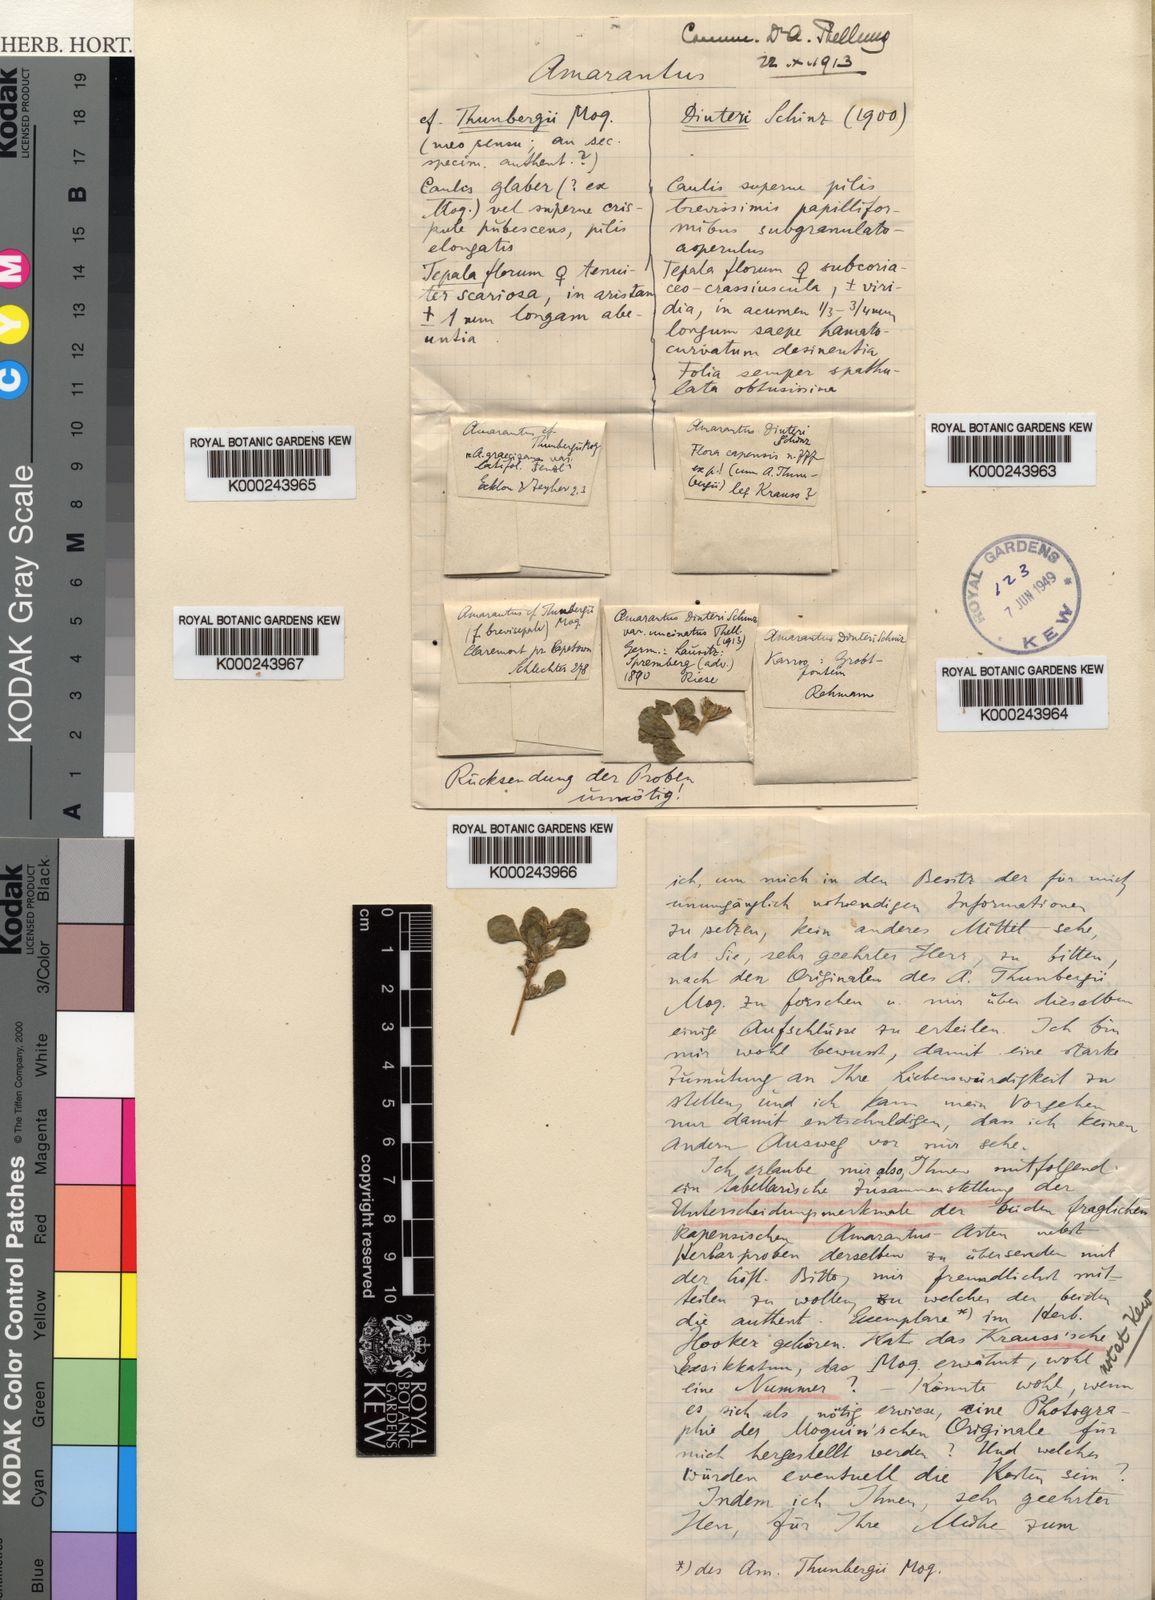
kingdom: Plantae
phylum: Tracheophyta
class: Magnoliopsida
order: Caryophyllales
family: Amaranthaceae
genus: Amaranthus
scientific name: Amaranthus dinteri
